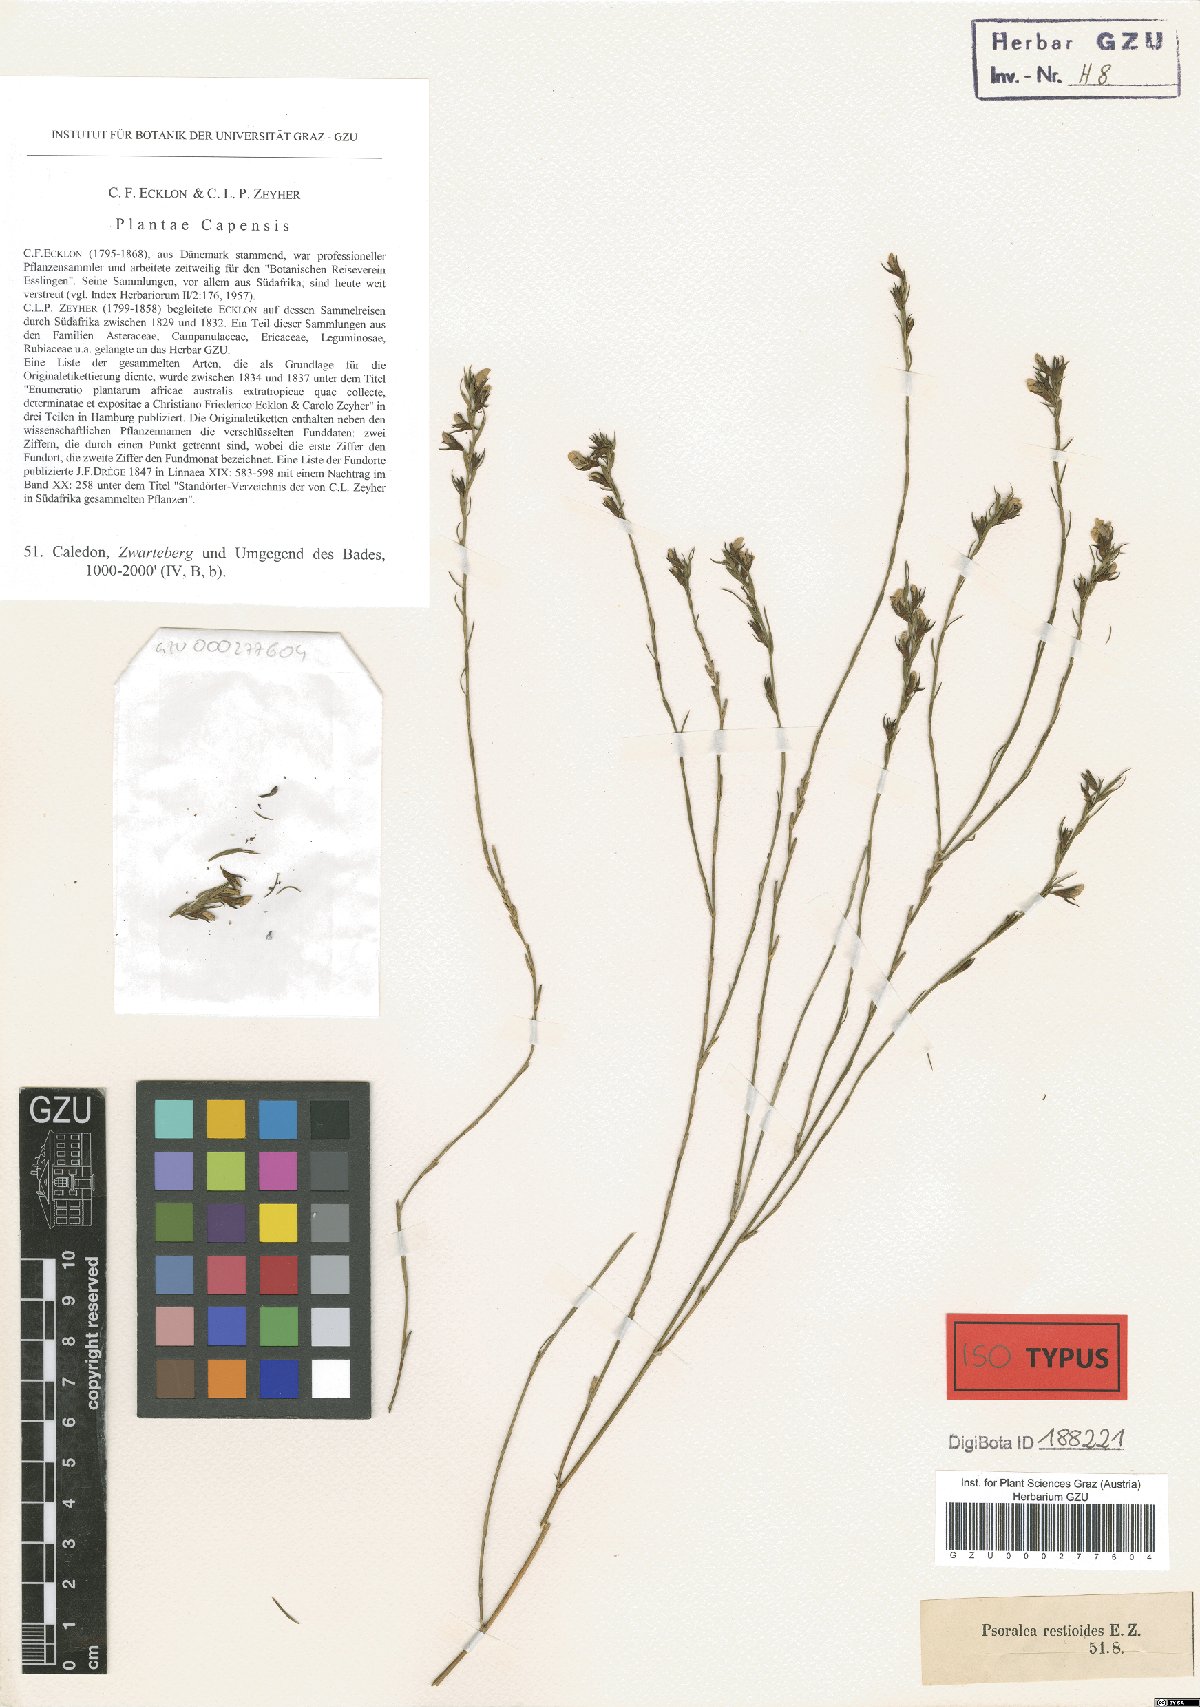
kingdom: Plantae
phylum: Tracheophyta
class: Magnoliopsida
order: Fabales
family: Fabaceae
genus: Psoralea
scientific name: Psoralea restioides
